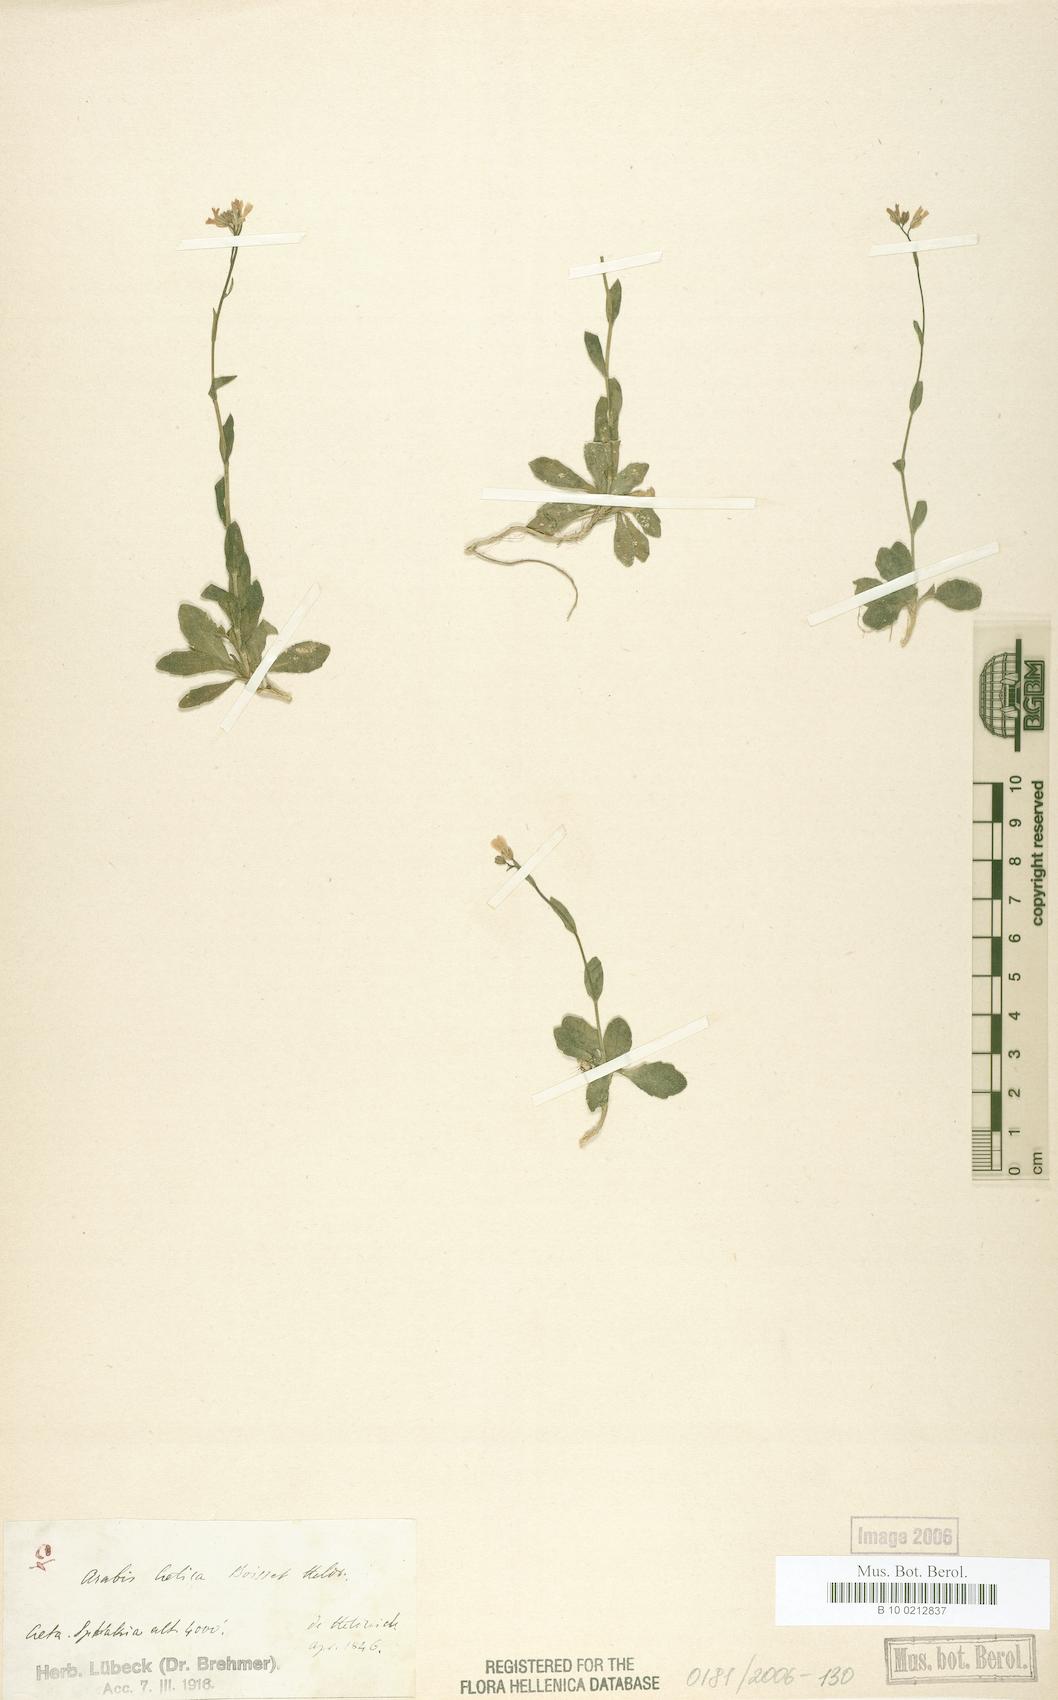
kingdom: Plantae
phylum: Tracheophyta
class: Magnoliopsida
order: Brassicales
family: Brassicaceae
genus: Arabis
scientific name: Arabis cretica
